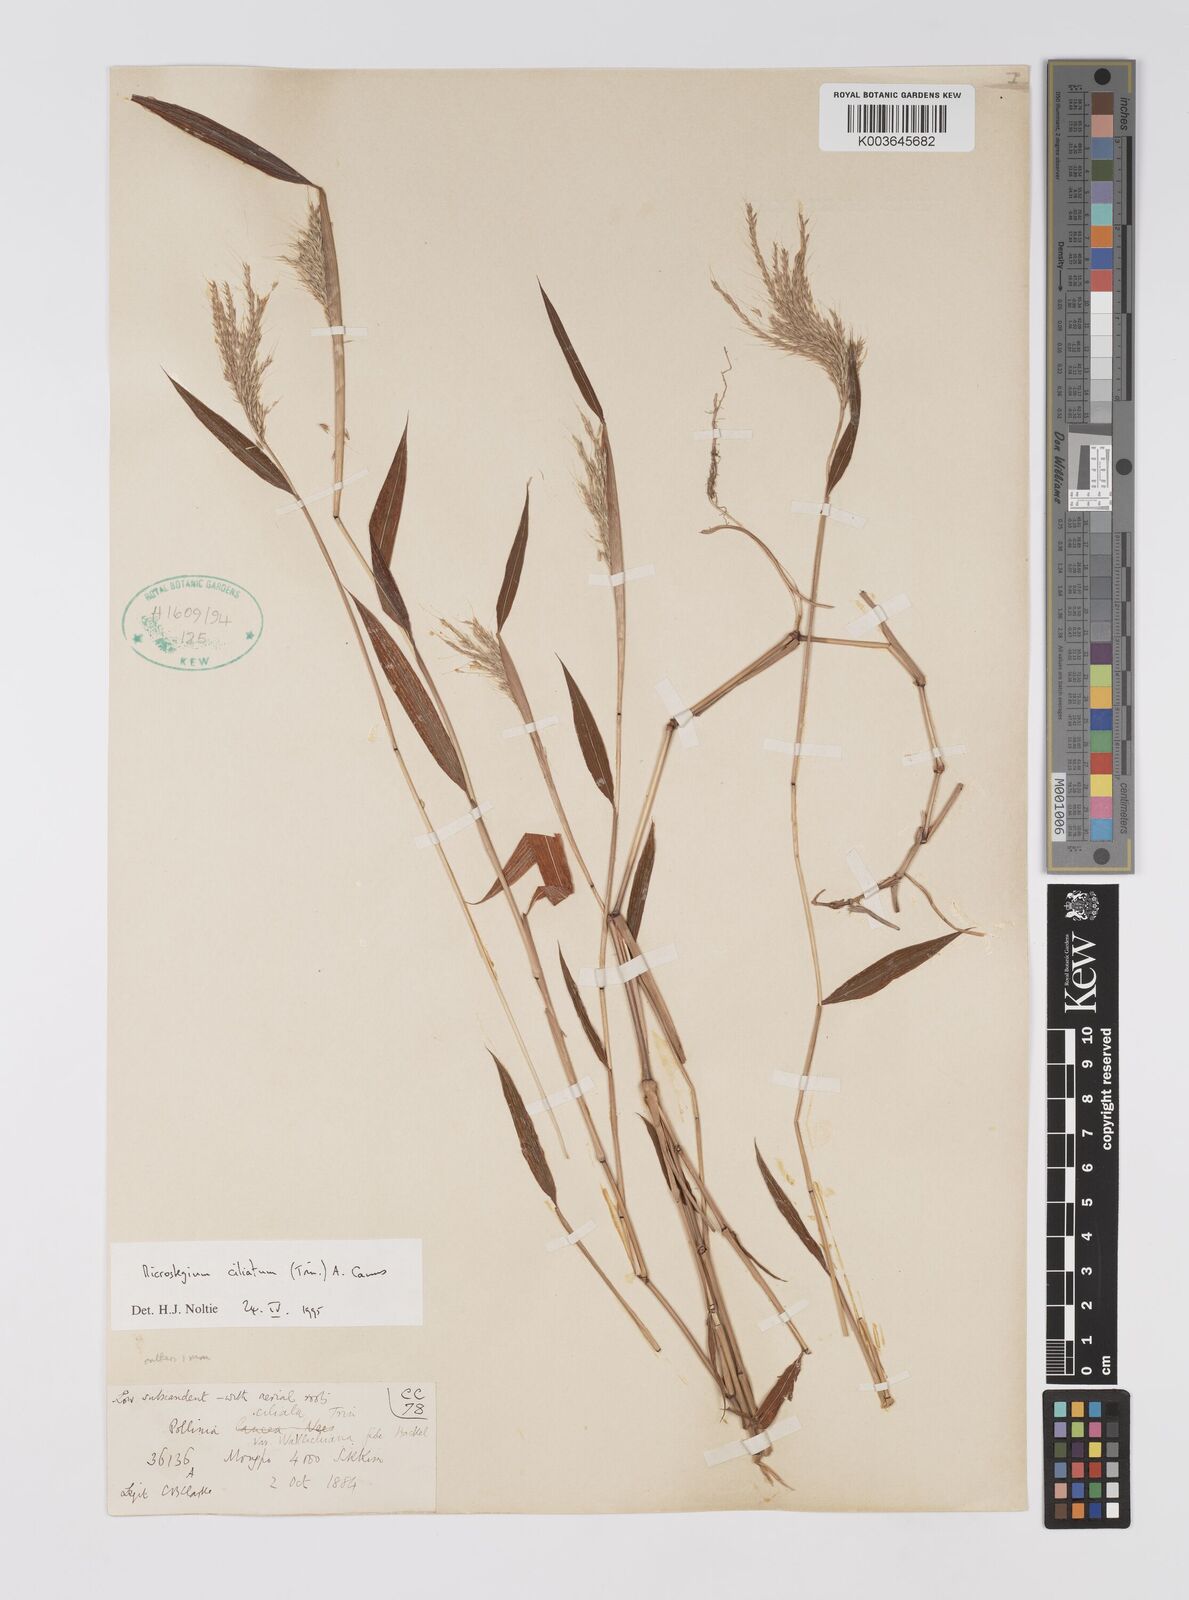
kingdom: Plantae
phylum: Tracheophyta
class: Liliopsida
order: Poales
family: Poaceae
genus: Microstegium
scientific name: Microstegium fasciculatum
